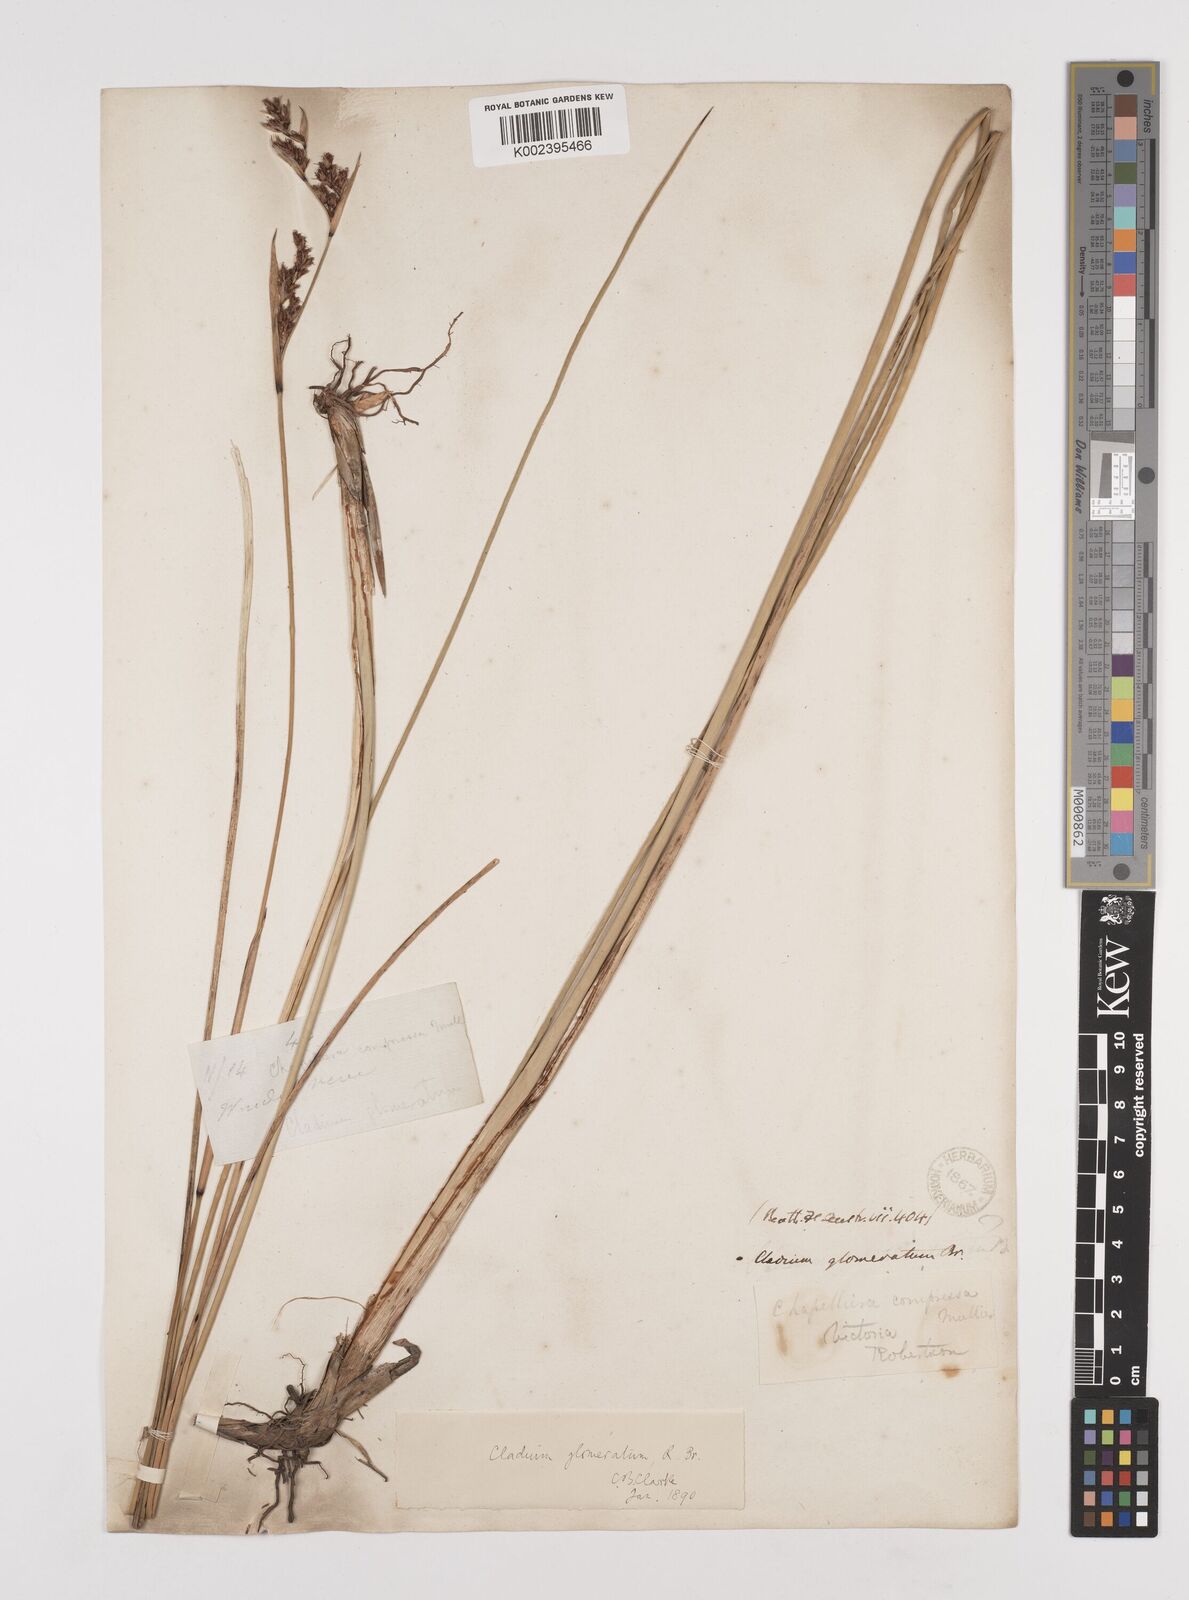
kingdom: Plantae
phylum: Tracheophyta
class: Liliopsida
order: Poales
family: Cyperaceae
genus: Machaerina
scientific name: Machaerina
